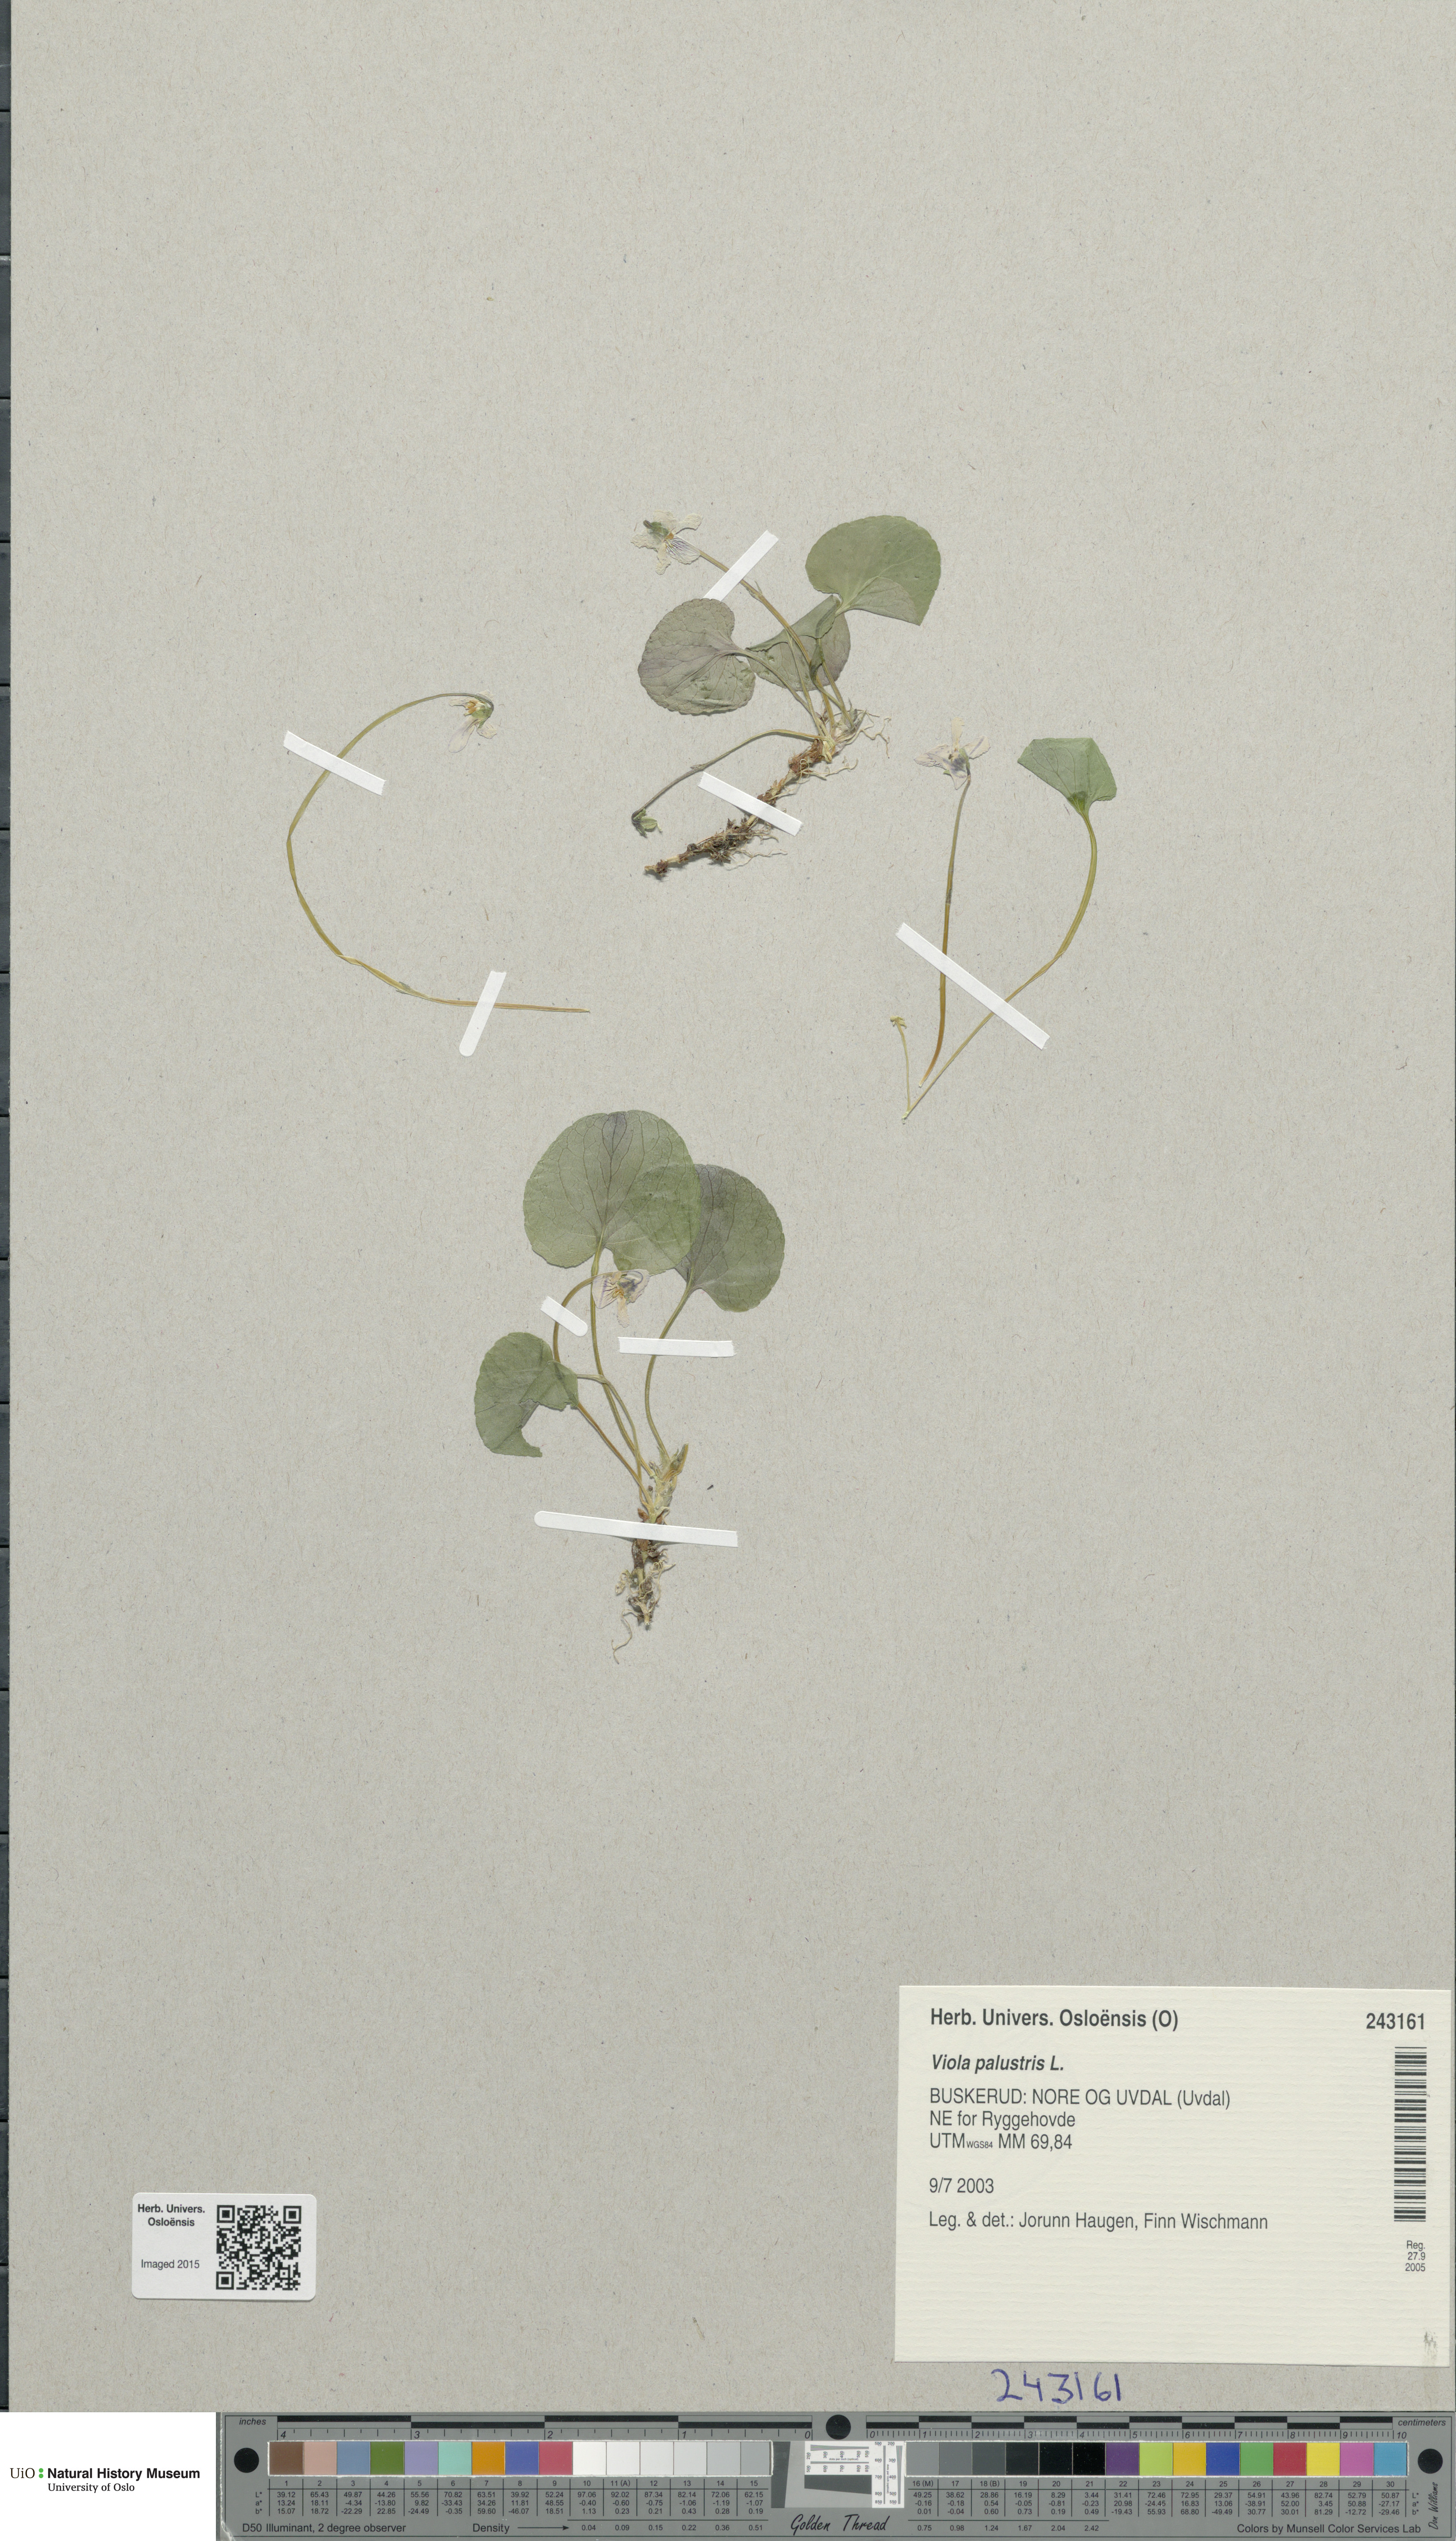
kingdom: Plantae
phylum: Tracheophyta
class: Magnoliopsida
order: Malpighiales
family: Violaceae
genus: Viola
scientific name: Viola palustris
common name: Marsh violet
